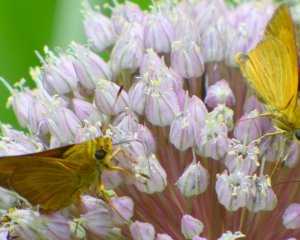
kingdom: Animalia
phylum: Arthropoda
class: Insecta
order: Lepidoptera
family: Hesperiidae
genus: Problema
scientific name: Problema byssus
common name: Byssus Skipper
